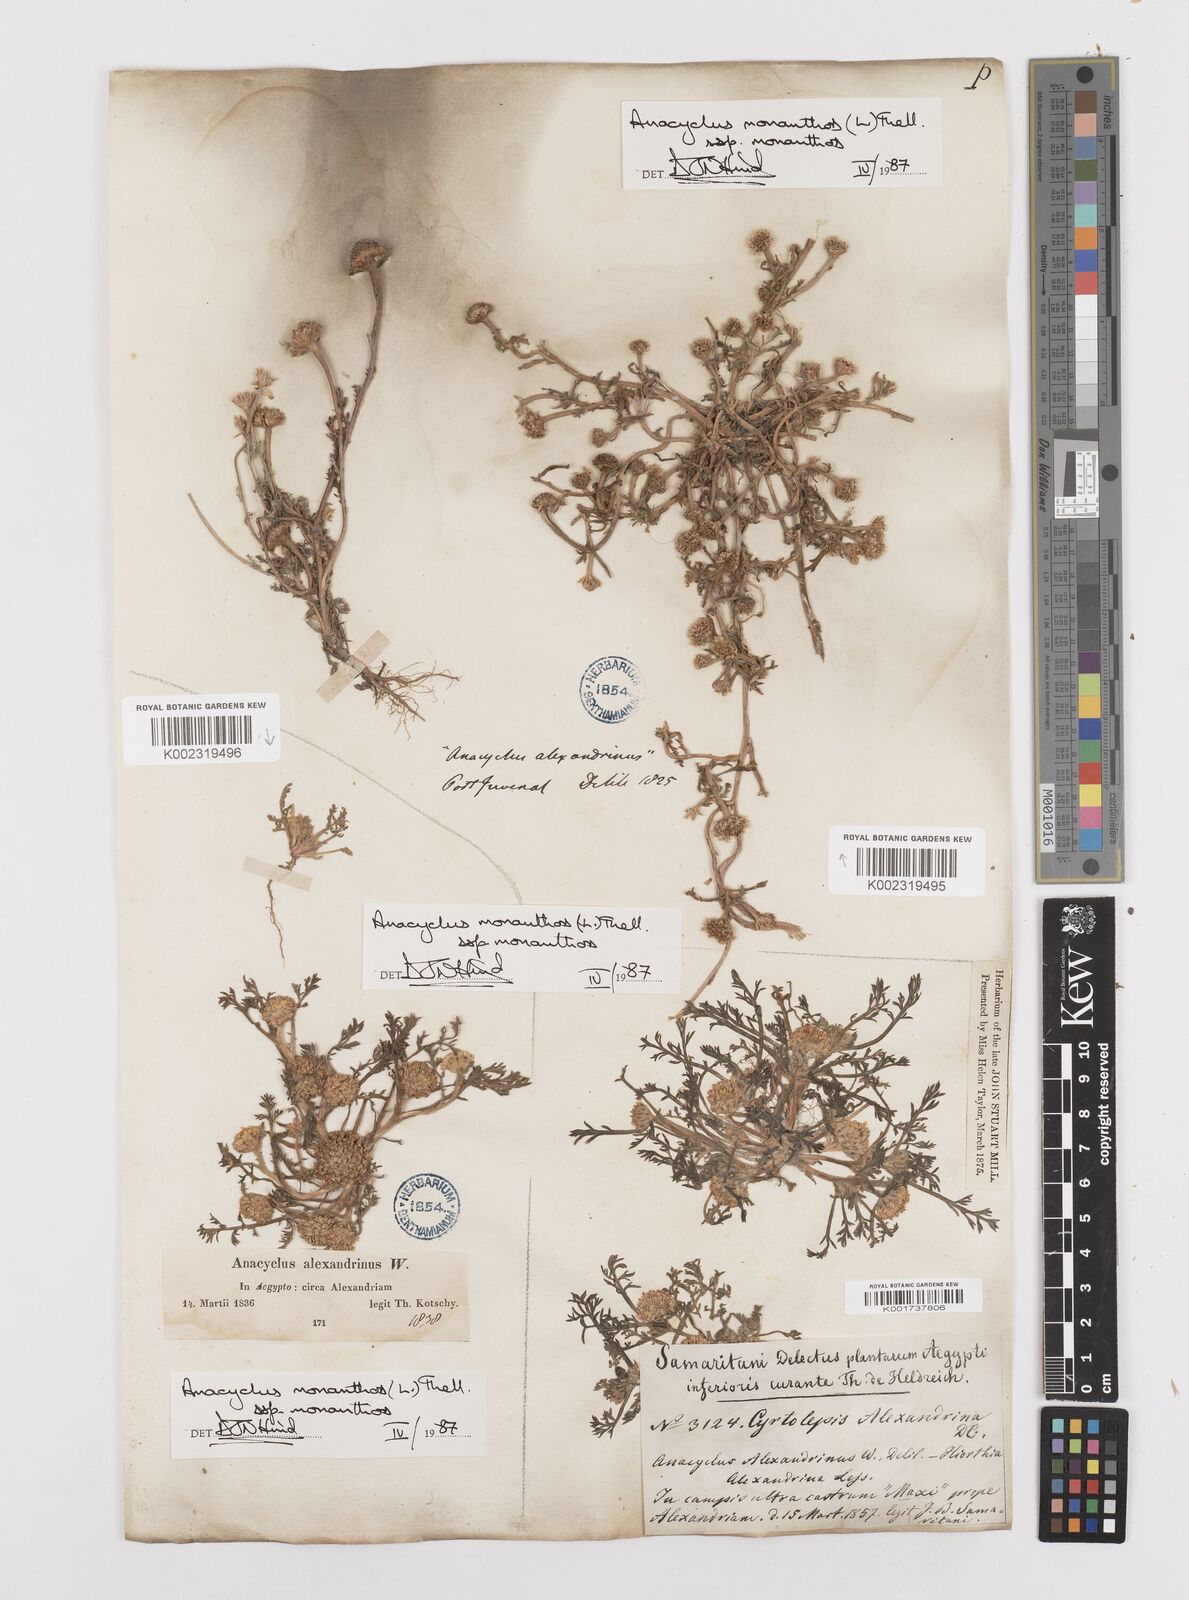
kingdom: Plantae
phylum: Tracheophyta
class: Magnoliopsida
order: Asterales
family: Asteraceae
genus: Anacyclus
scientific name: Anacyclus monanthos
